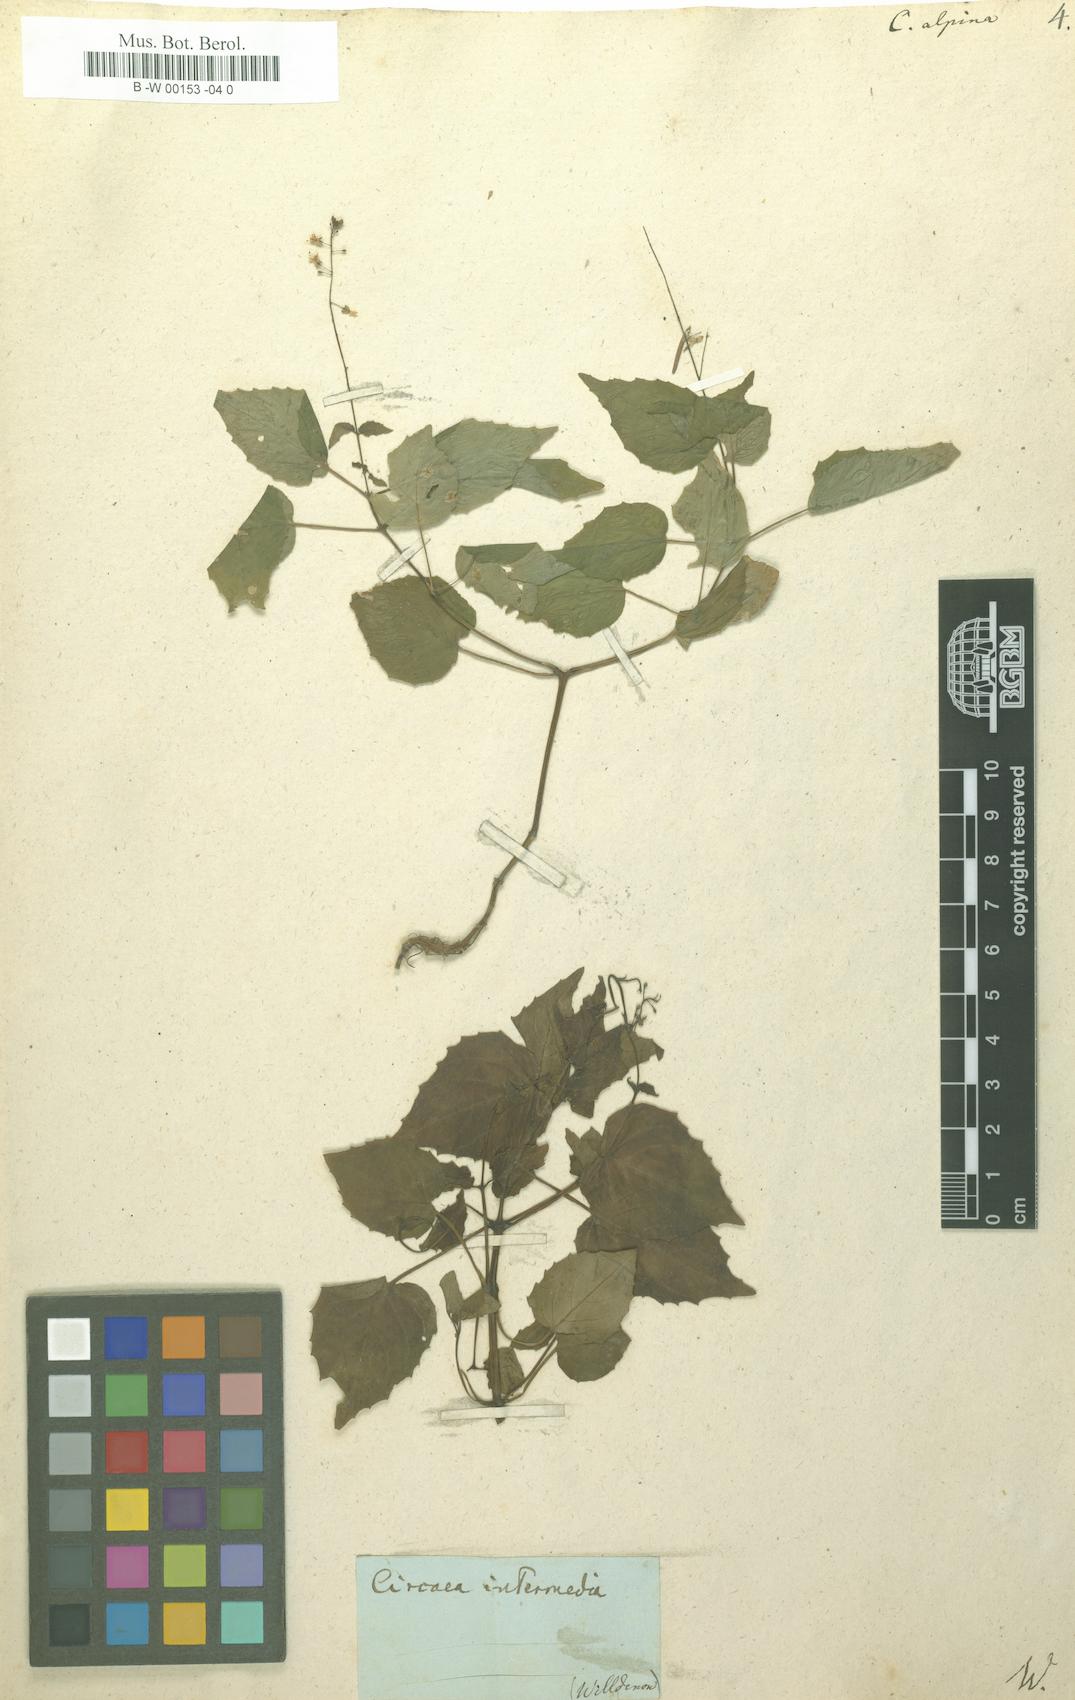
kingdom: Plantae
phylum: Tracheophyta
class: Magnoliopsida
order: Myrtales
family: Onagraceae
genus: Circaea
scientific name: Circaea alpina
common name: Alpine enchanter's-nightshade
